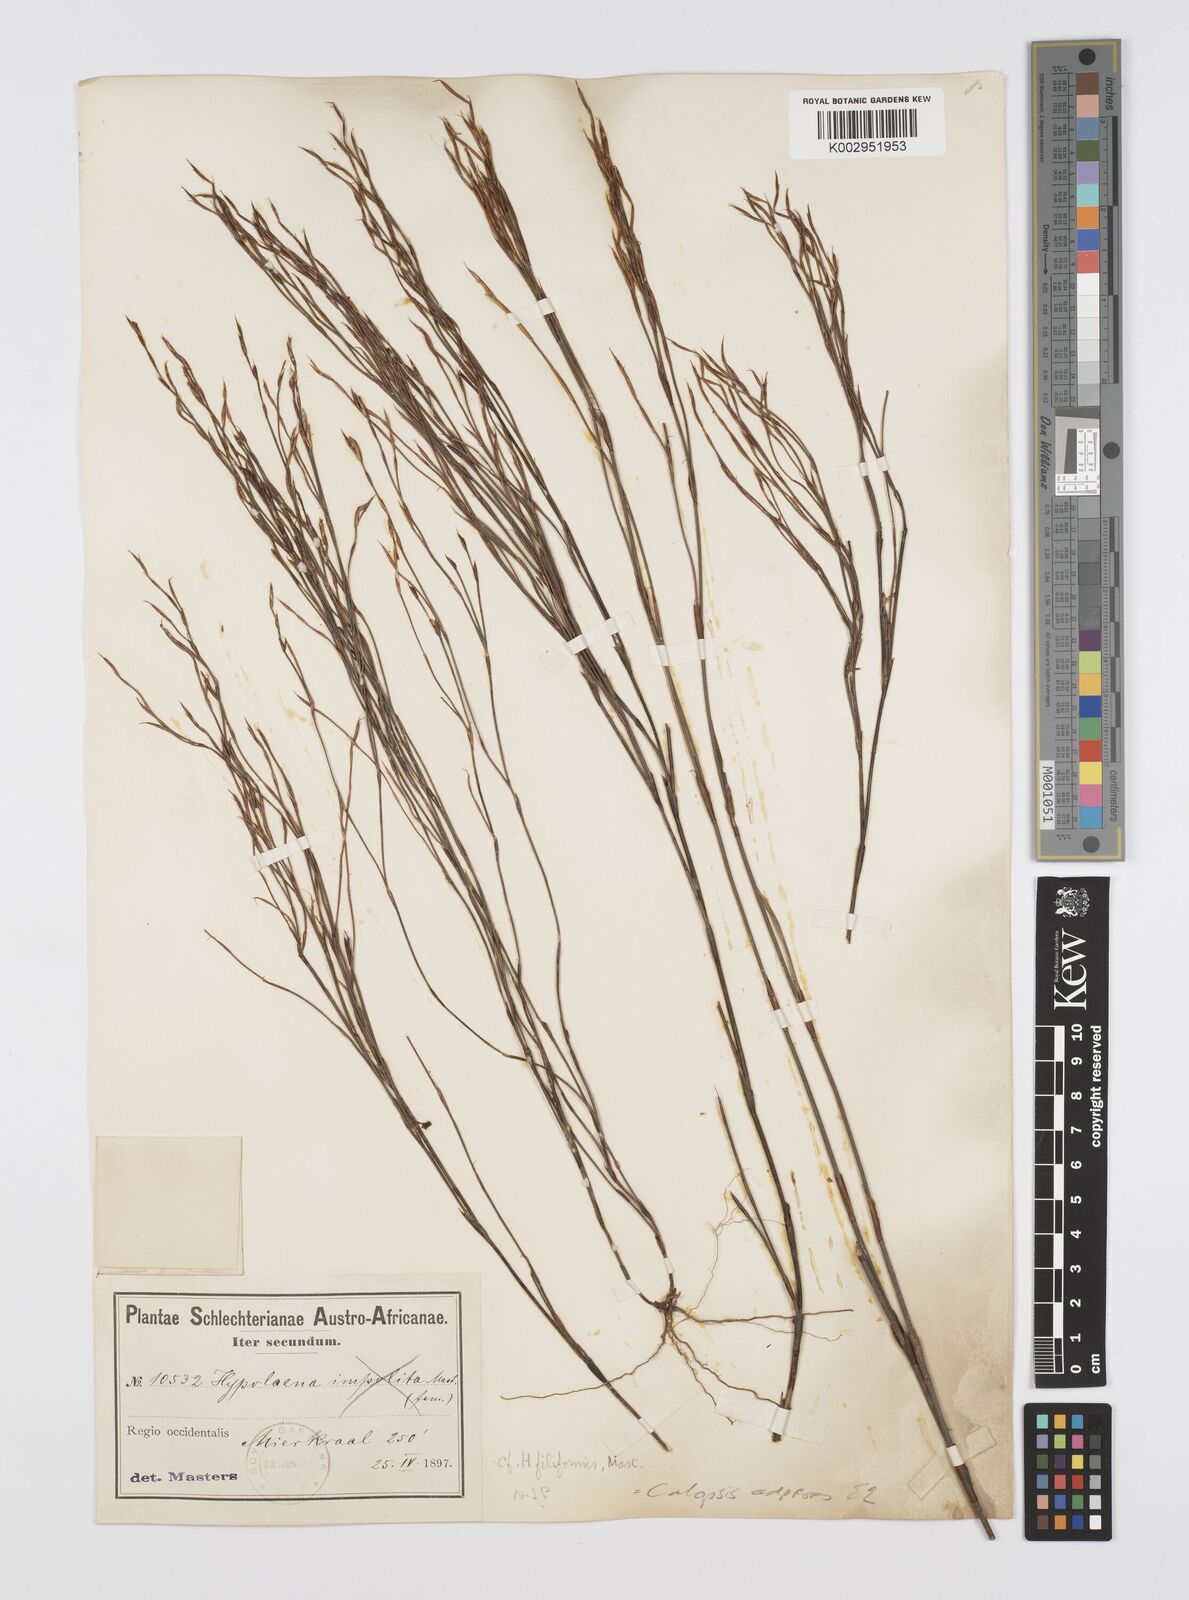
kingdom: Plantae
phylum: Tracheophyta
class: Liliopsida
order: Poales
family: Restionaceae
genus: Restio
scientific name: Restio filiformis
